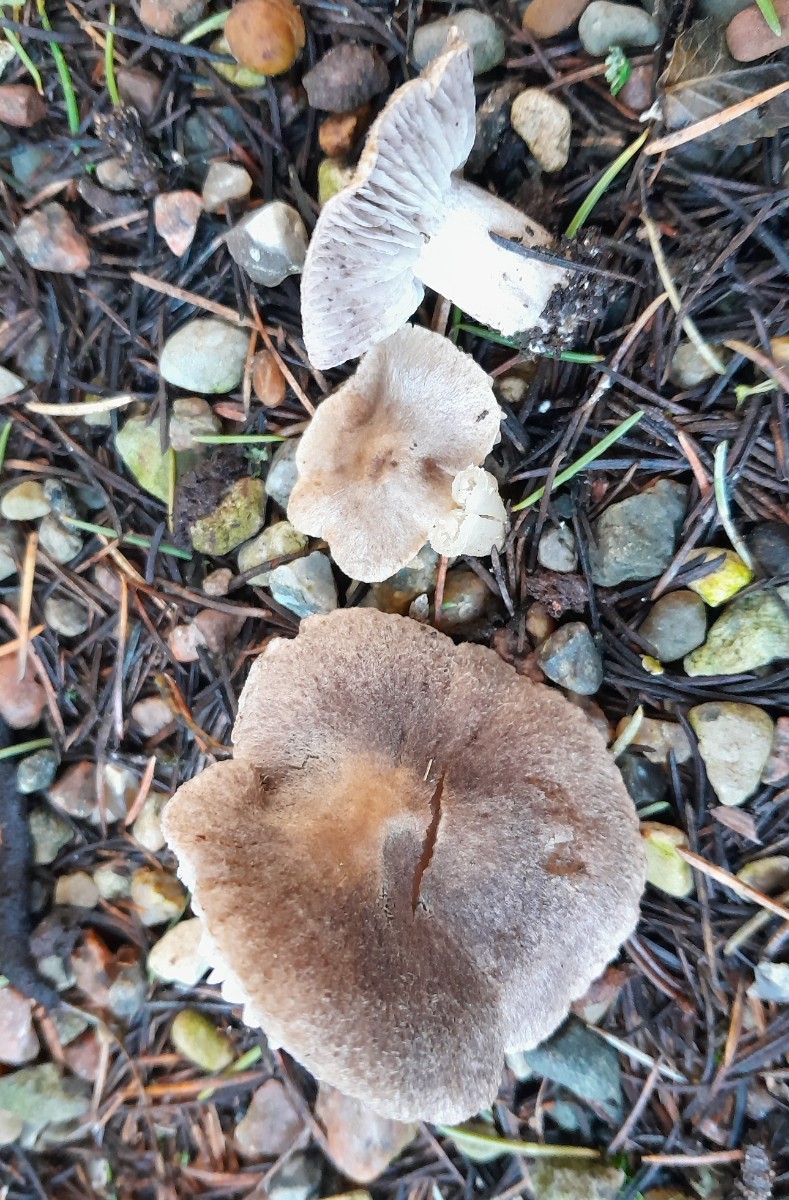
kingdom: Fungi
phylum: Basidiomycota
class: Agaricomycetes
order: Agaricales
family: Tricholomataceae
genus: Tricholoma
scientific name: Tricholoma terreum
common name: jordfarvet ridderhat
